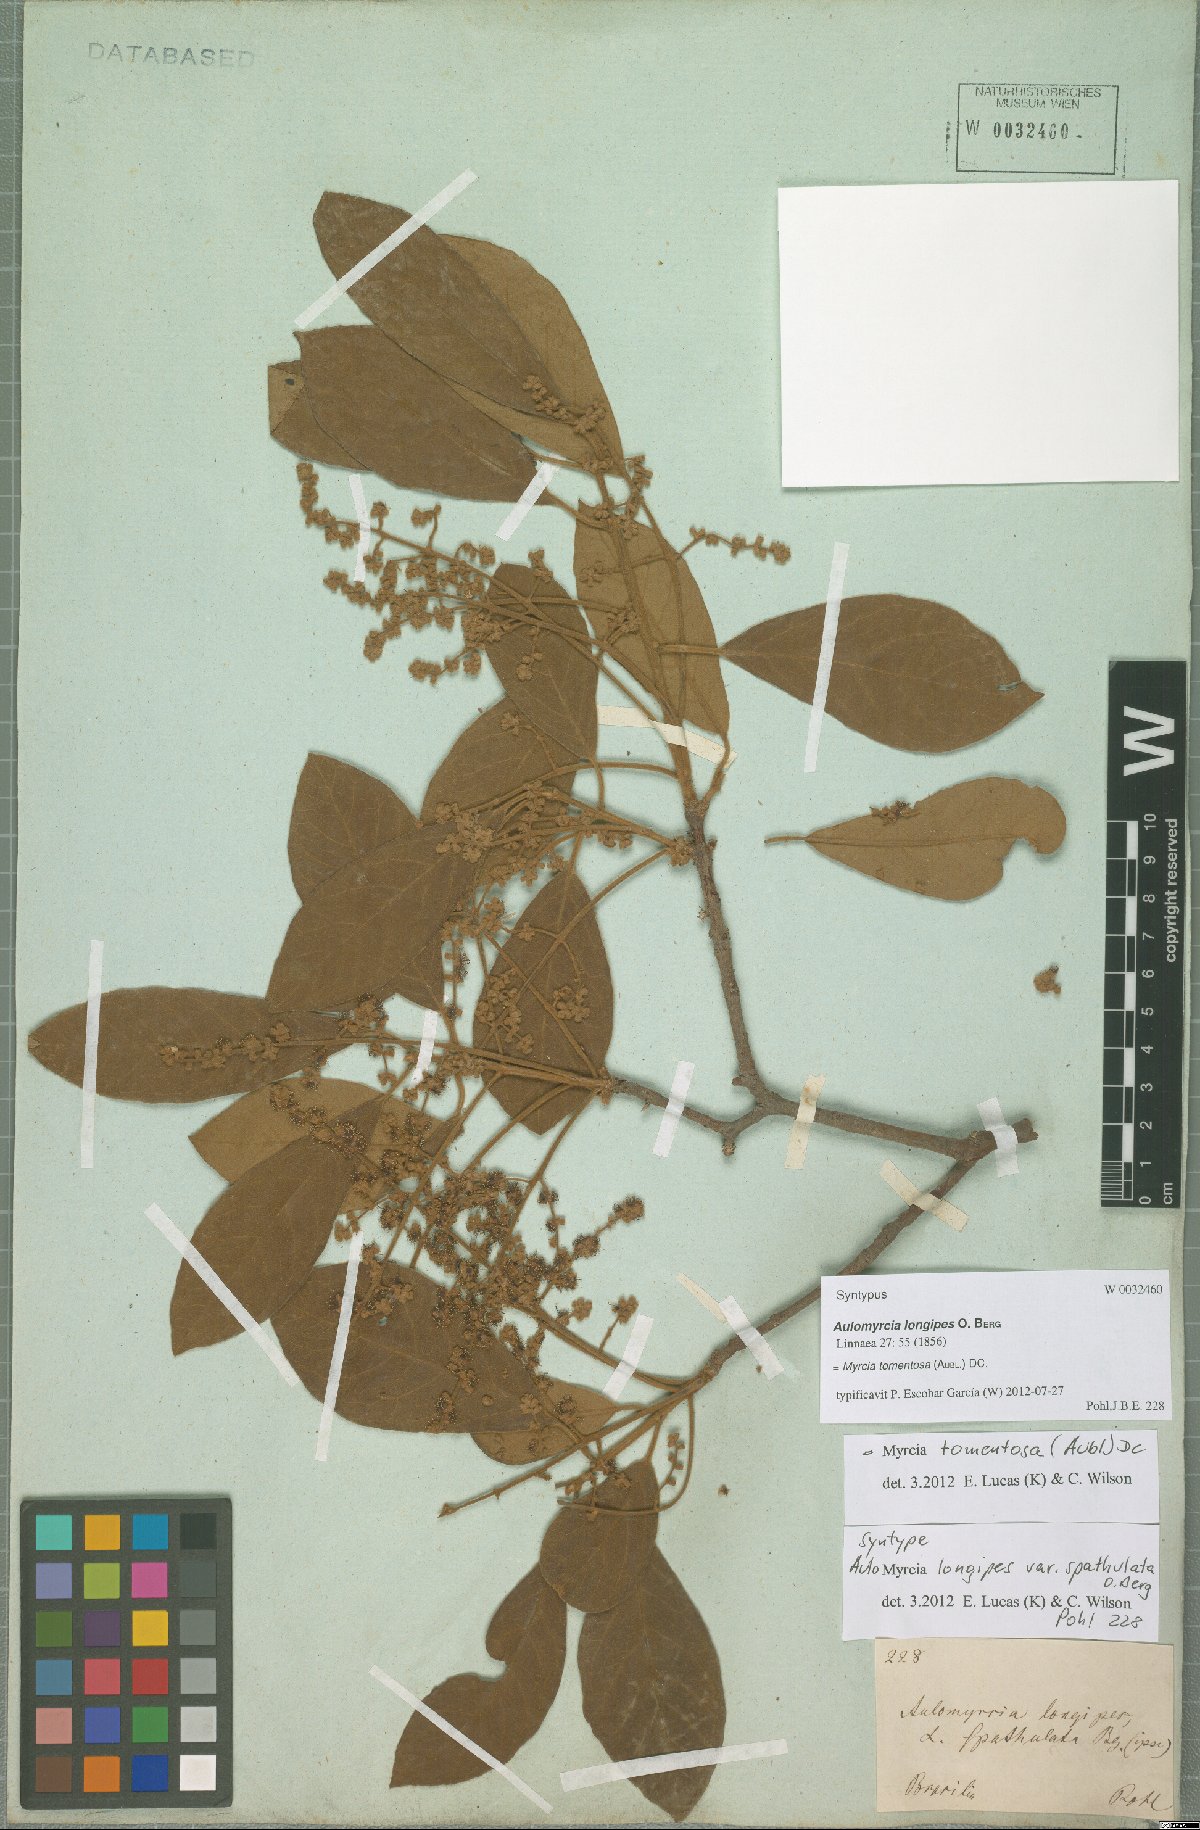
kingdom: Plantae
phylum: Tracheophyta
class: Magnoliopsida
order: Myrtales
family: Myrtaceae
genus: Myrcia
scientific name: Myrcia tomentosa
